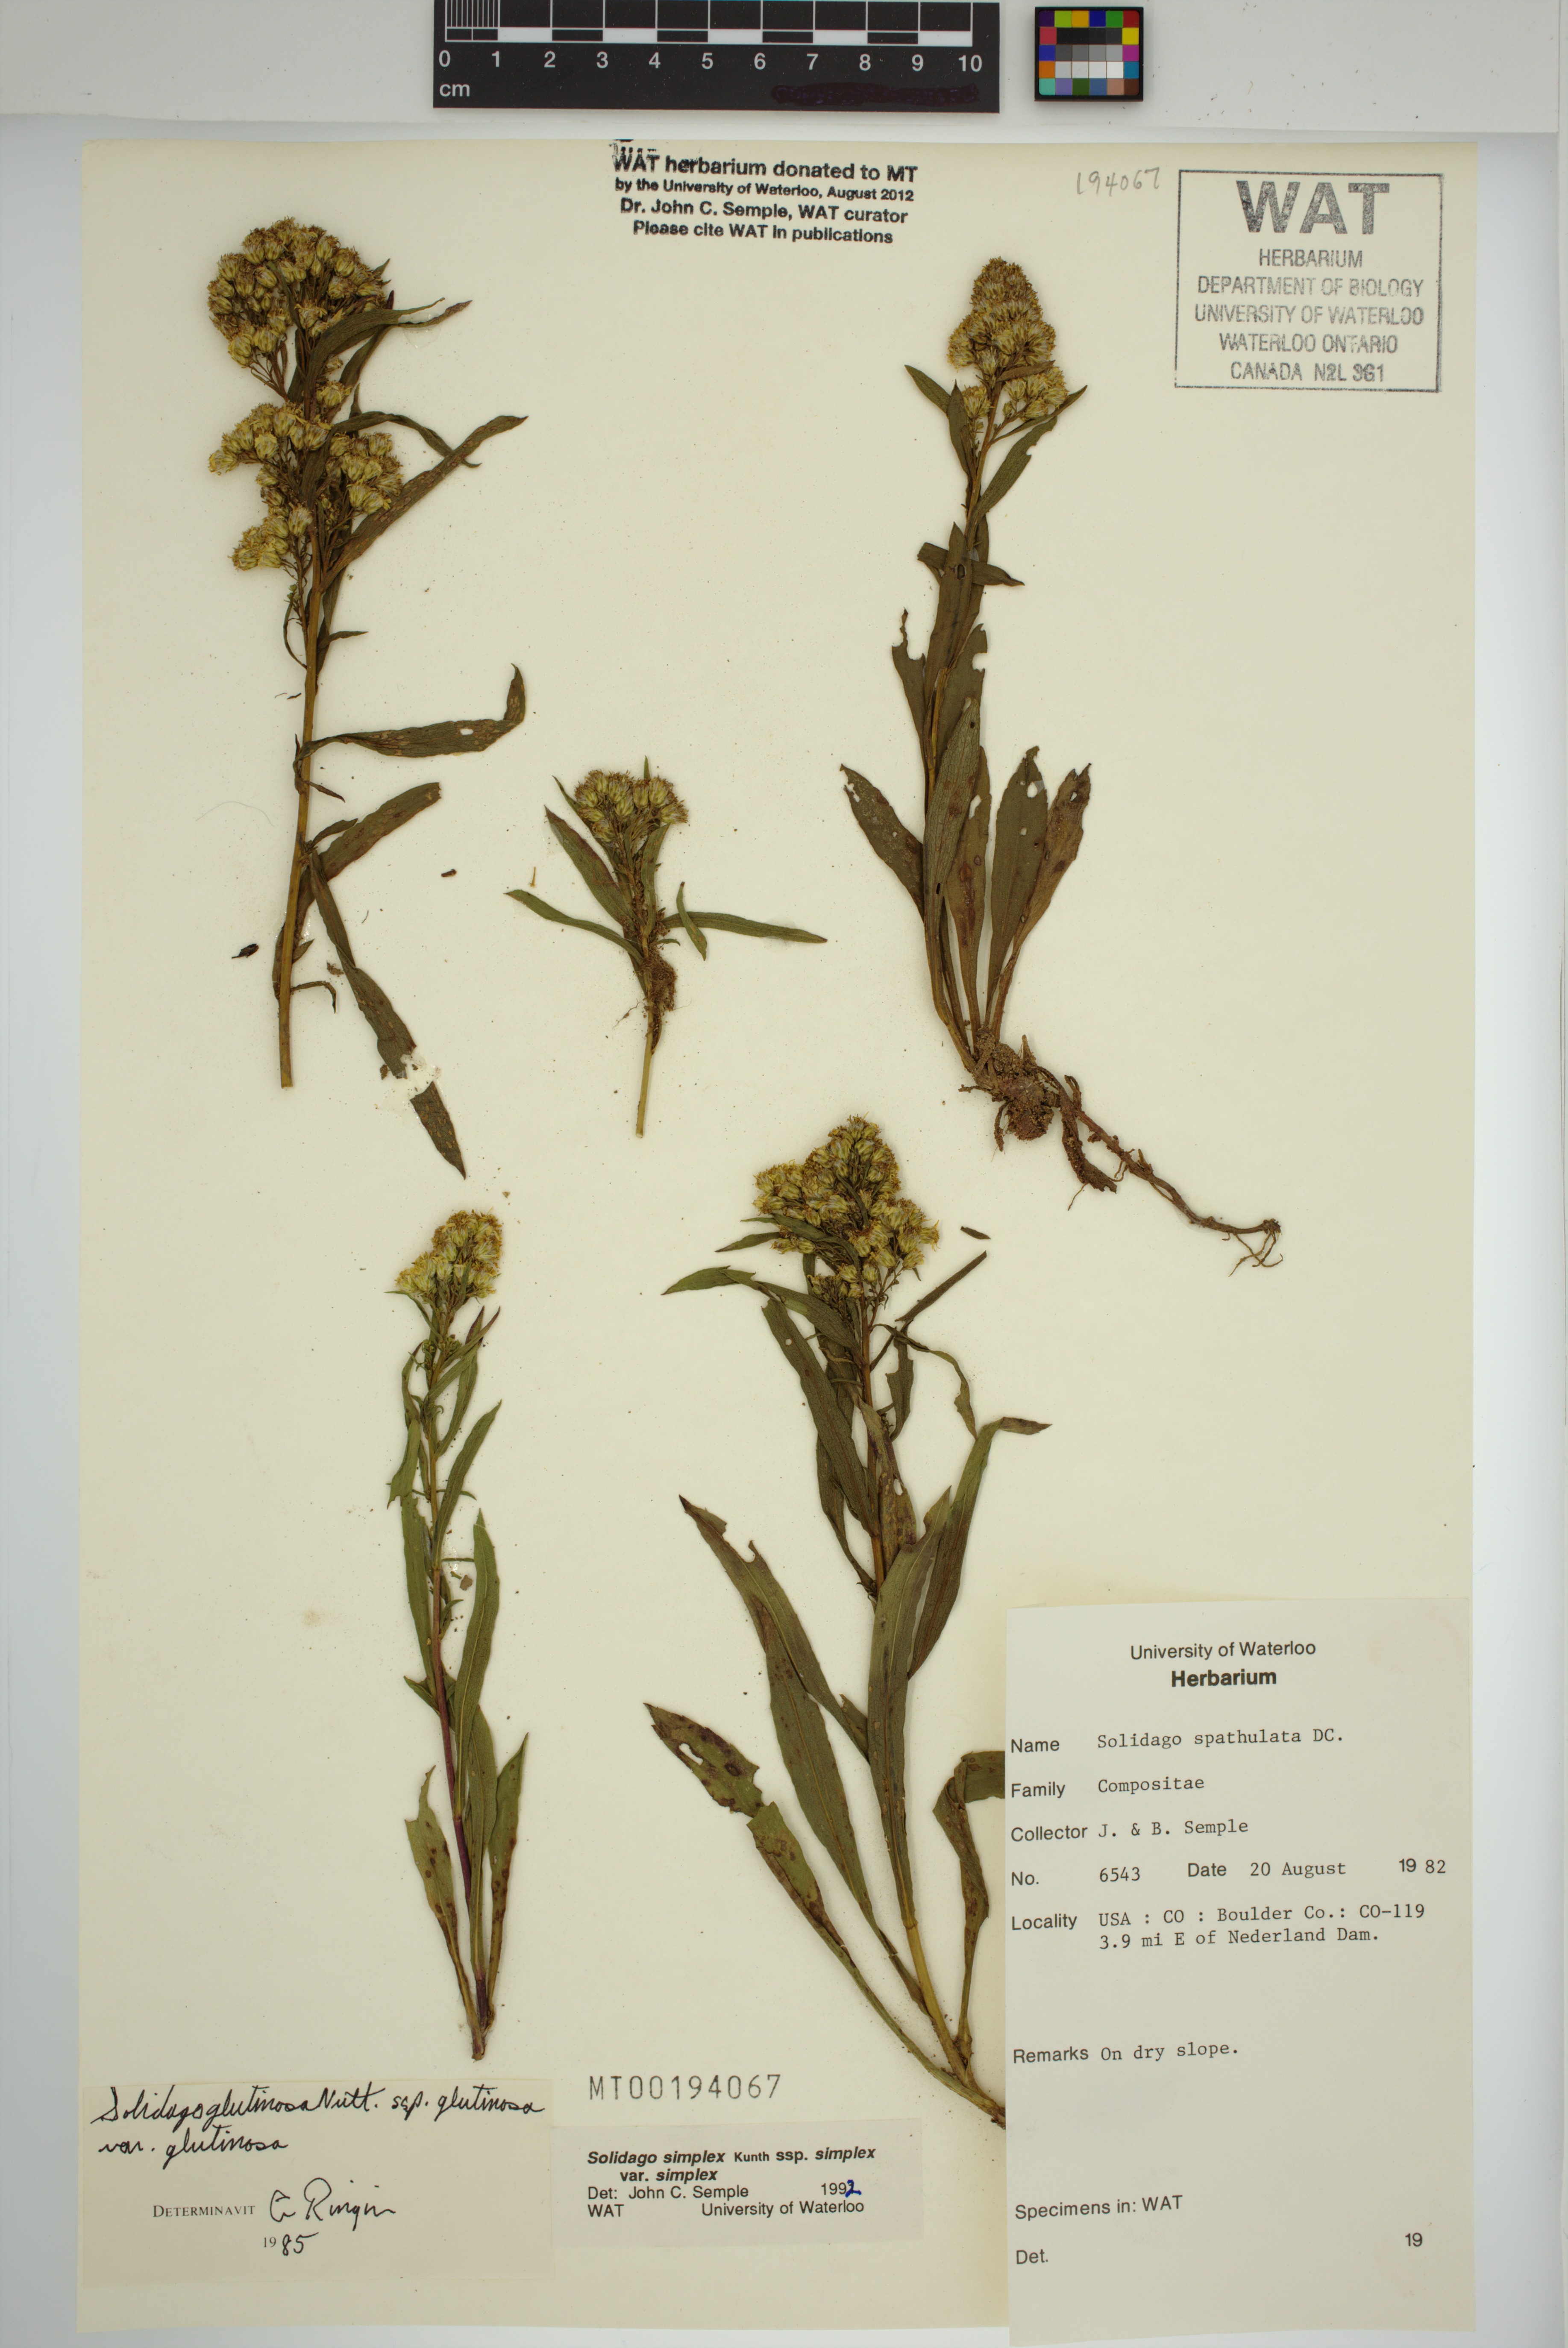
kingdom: Plantae
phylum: Tracheophyta
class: Magnoliopsida
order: Asterales
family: Asteraceae
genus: Solidago
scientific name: Solidago glutinosa
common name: Decumbent goldenrod
